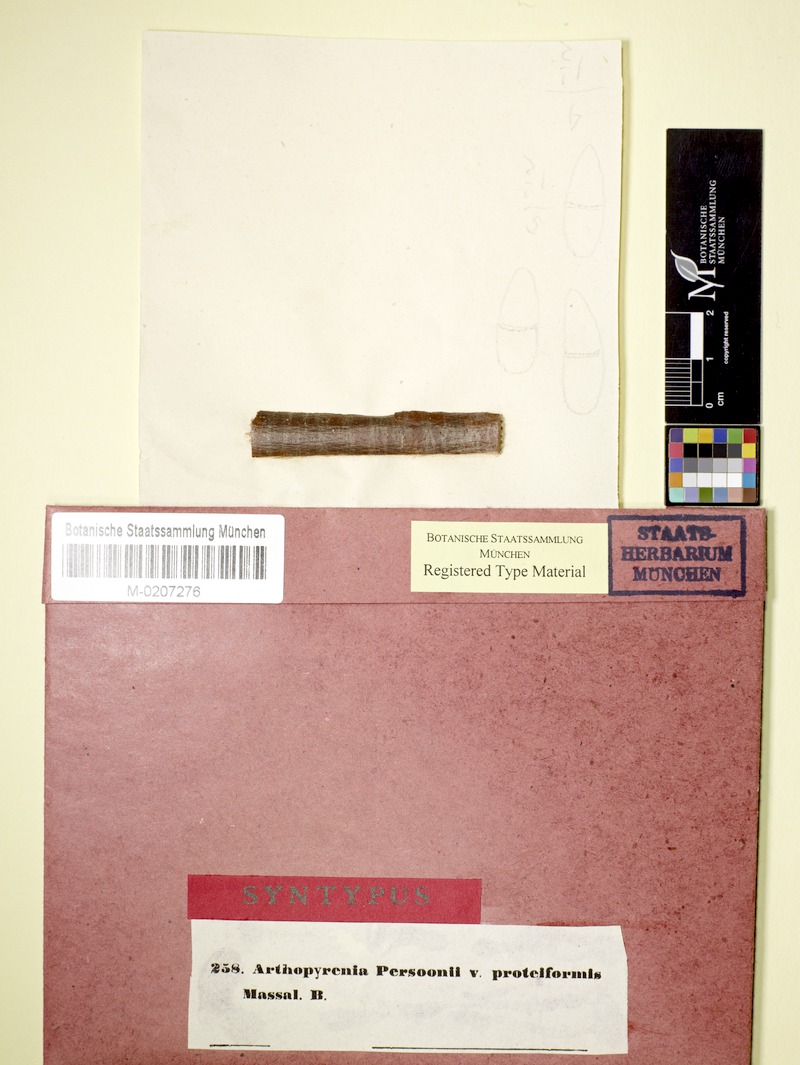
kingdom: Fungi
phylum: Ascomycota
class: Dothideomycetes
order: Pleosporales
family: Naetrocymbaceae
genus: Naetrocymbe
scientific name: Naetrocymbe punctiformis
